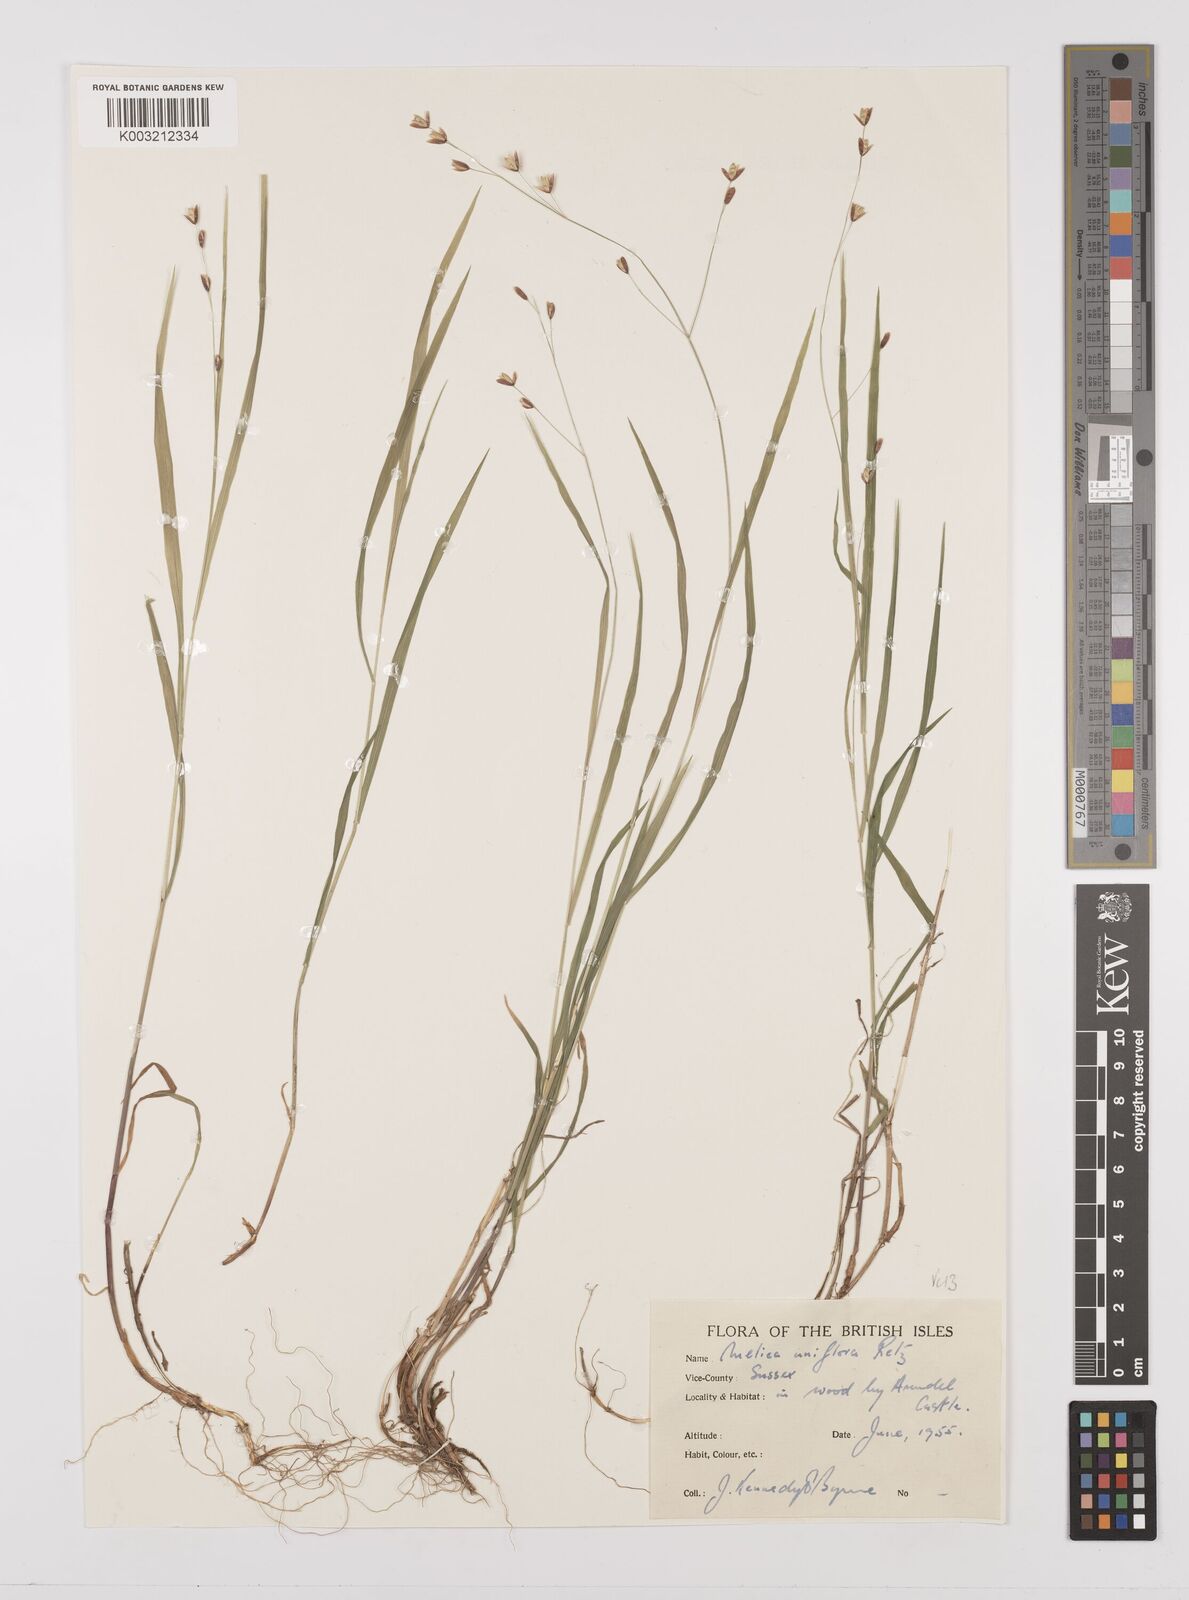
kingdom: Plantae
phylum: Tracheophyta
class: Liliopsida
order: Poales
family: Poaceae
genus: Melica
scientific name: Melica uniflora
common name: Wood melick
